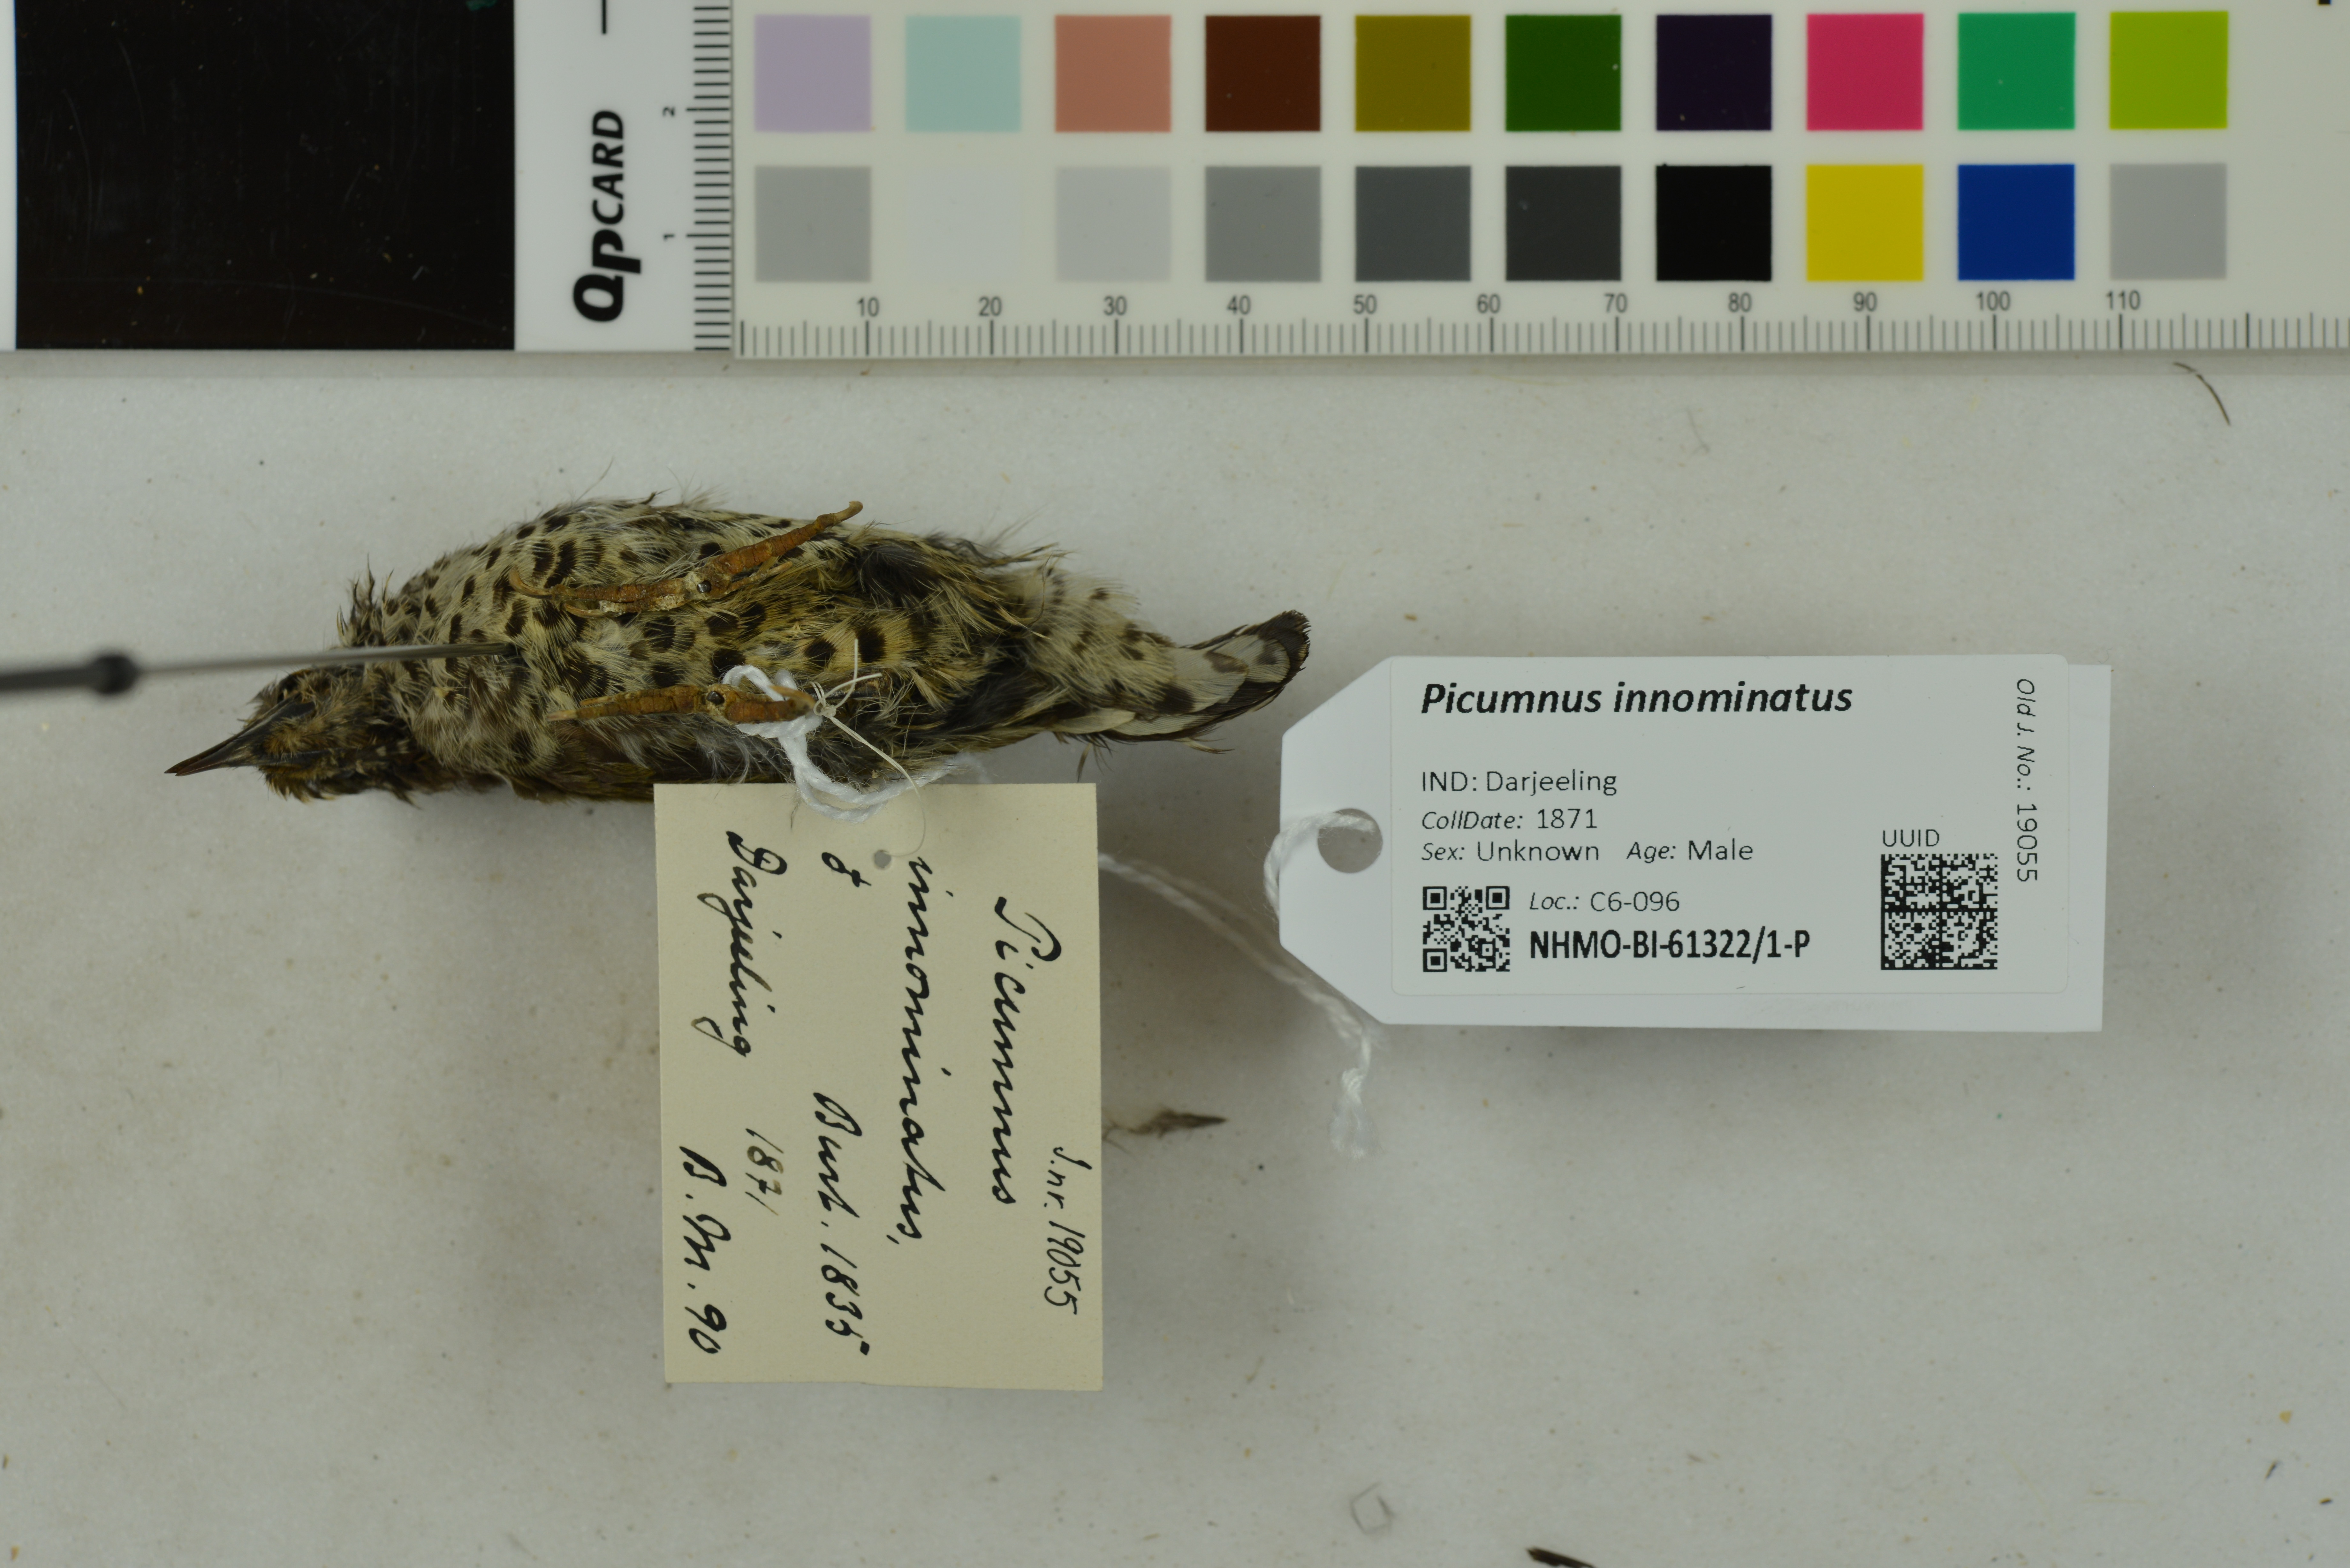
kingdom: Animalia
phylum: Chordata
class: Aves
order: Piciformes
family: Picidae
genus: Picumnus
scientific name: Picumnus innominatus
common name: Speckled piculet
